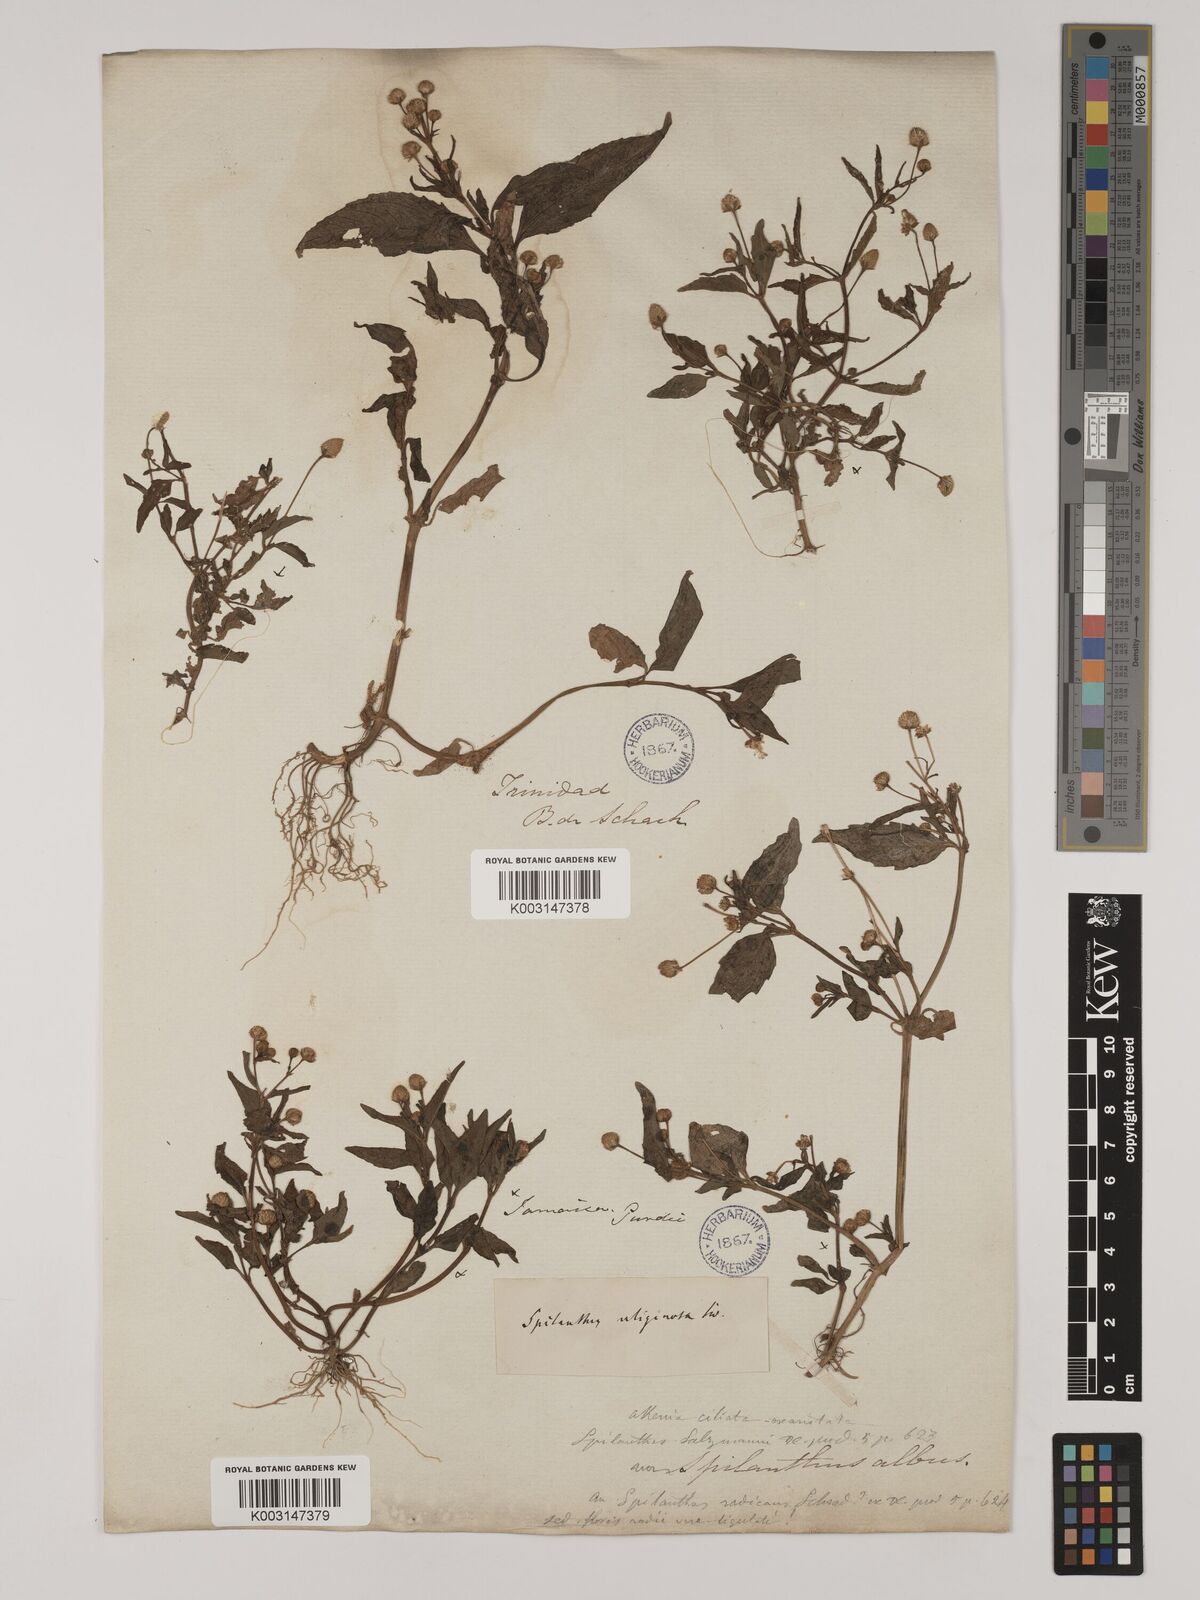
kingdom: Plantae
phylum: Tracheophyta
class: Magnoliopsida
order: Asterales
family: Asteraceae
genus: Acmella
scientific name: Acmella uliginosa
